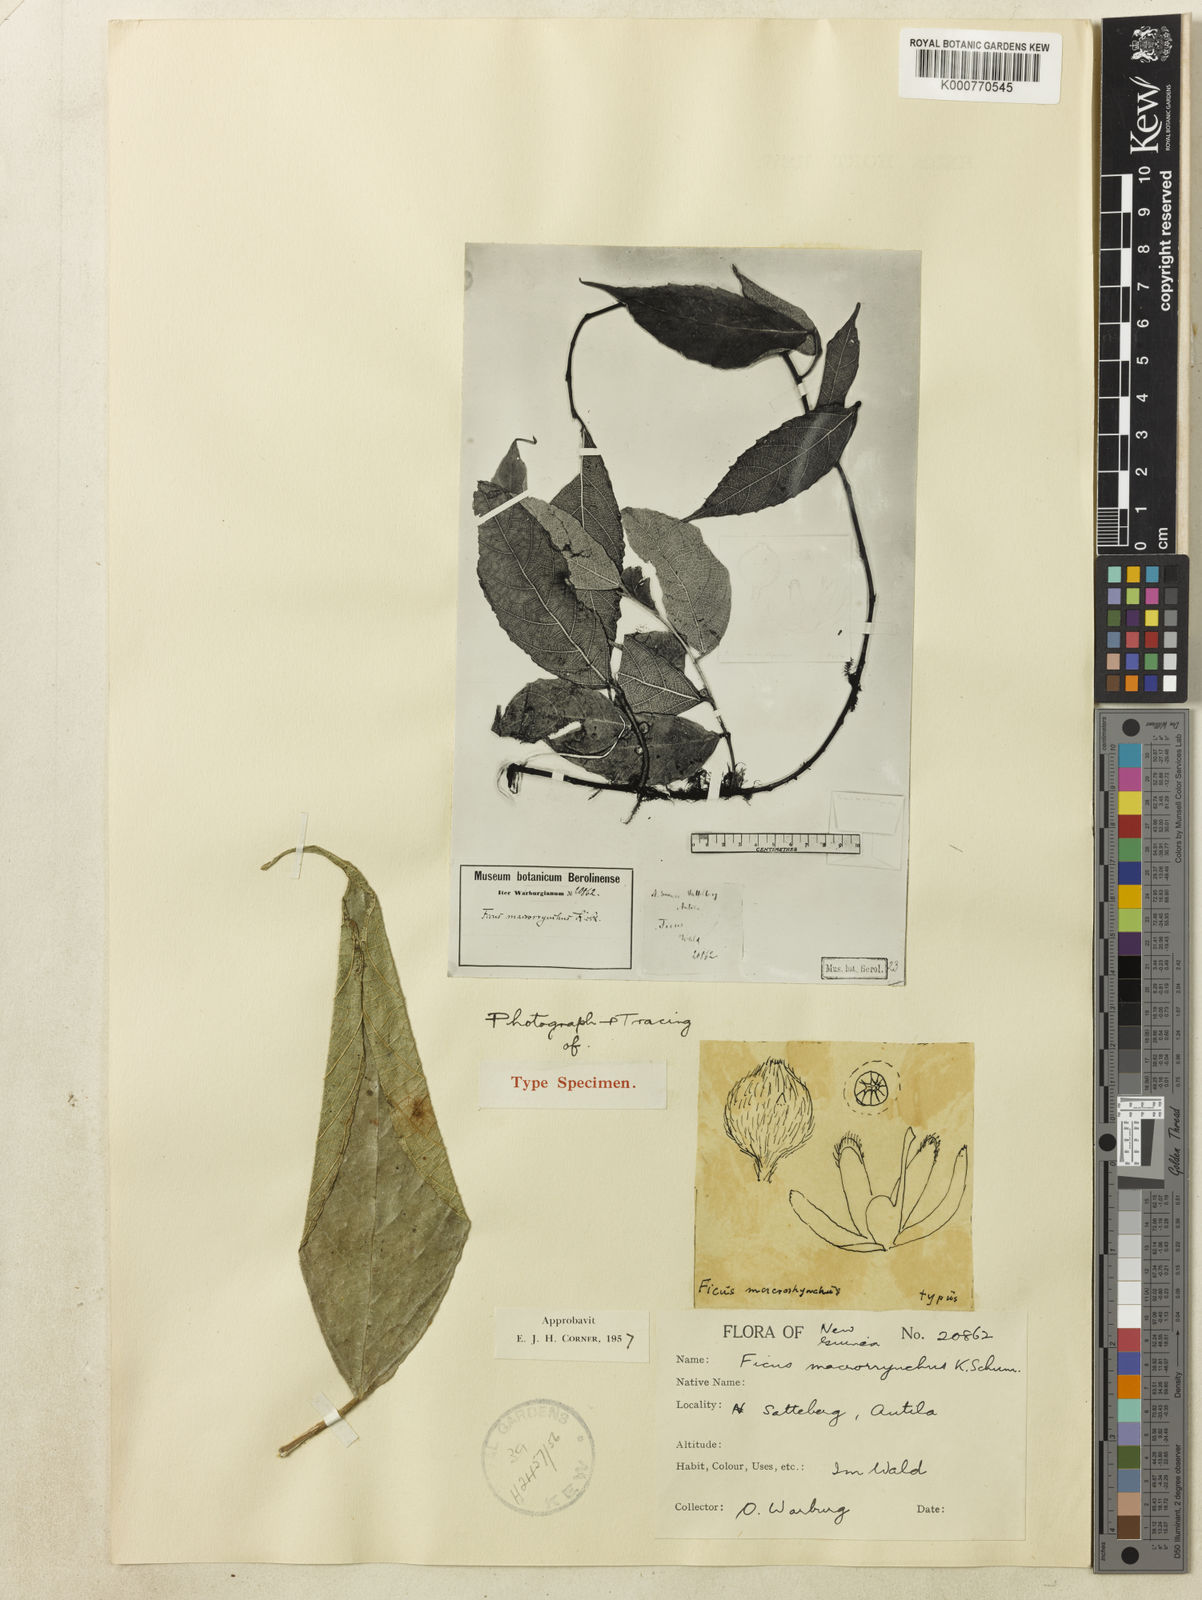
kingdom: Plantae
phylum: Tracheophyta
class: Magnoliopsida
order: Rosales
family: Moraceae
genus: Ficus
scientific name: Ficus macrorrhyncha
